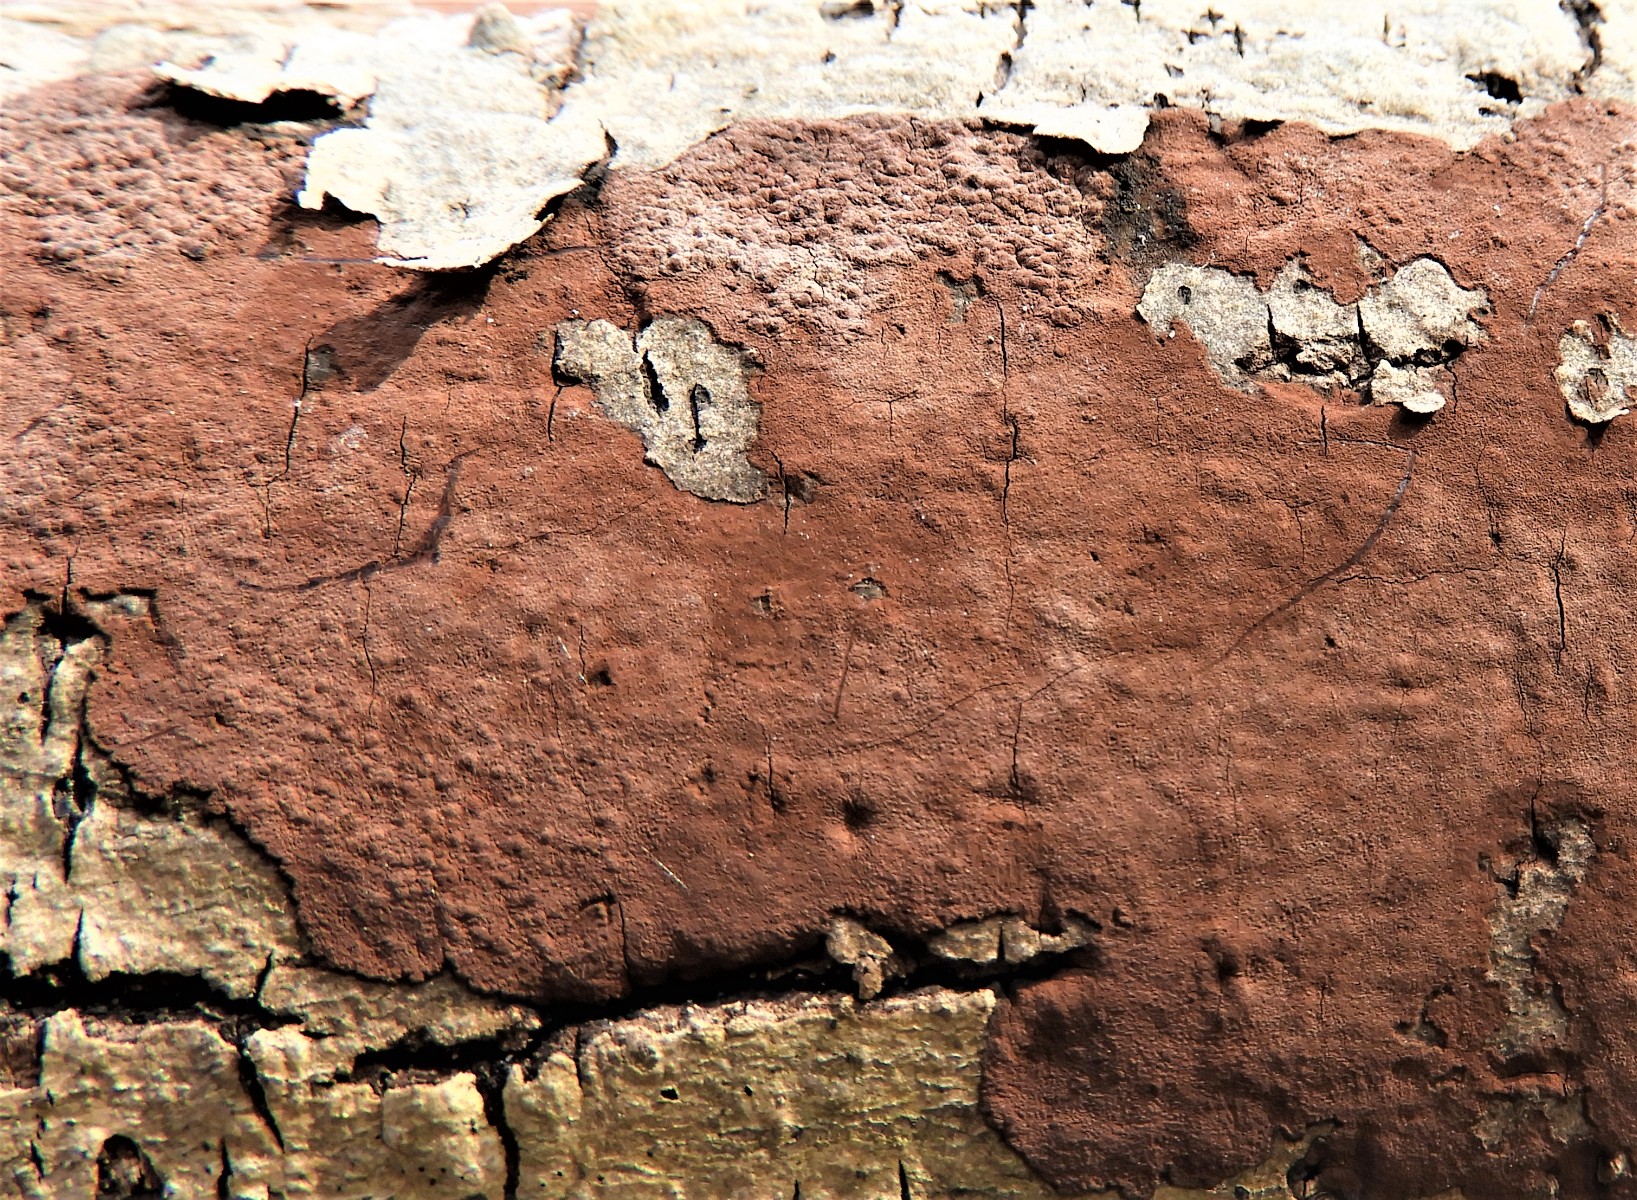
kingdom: Fungi
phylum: Ascomycota
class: Sordariomycetes
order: Xylariales
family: Hypoxylaceae
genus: Hypoxylon
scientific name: Hypoxylon petriniae
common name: nedsænket kulbær
